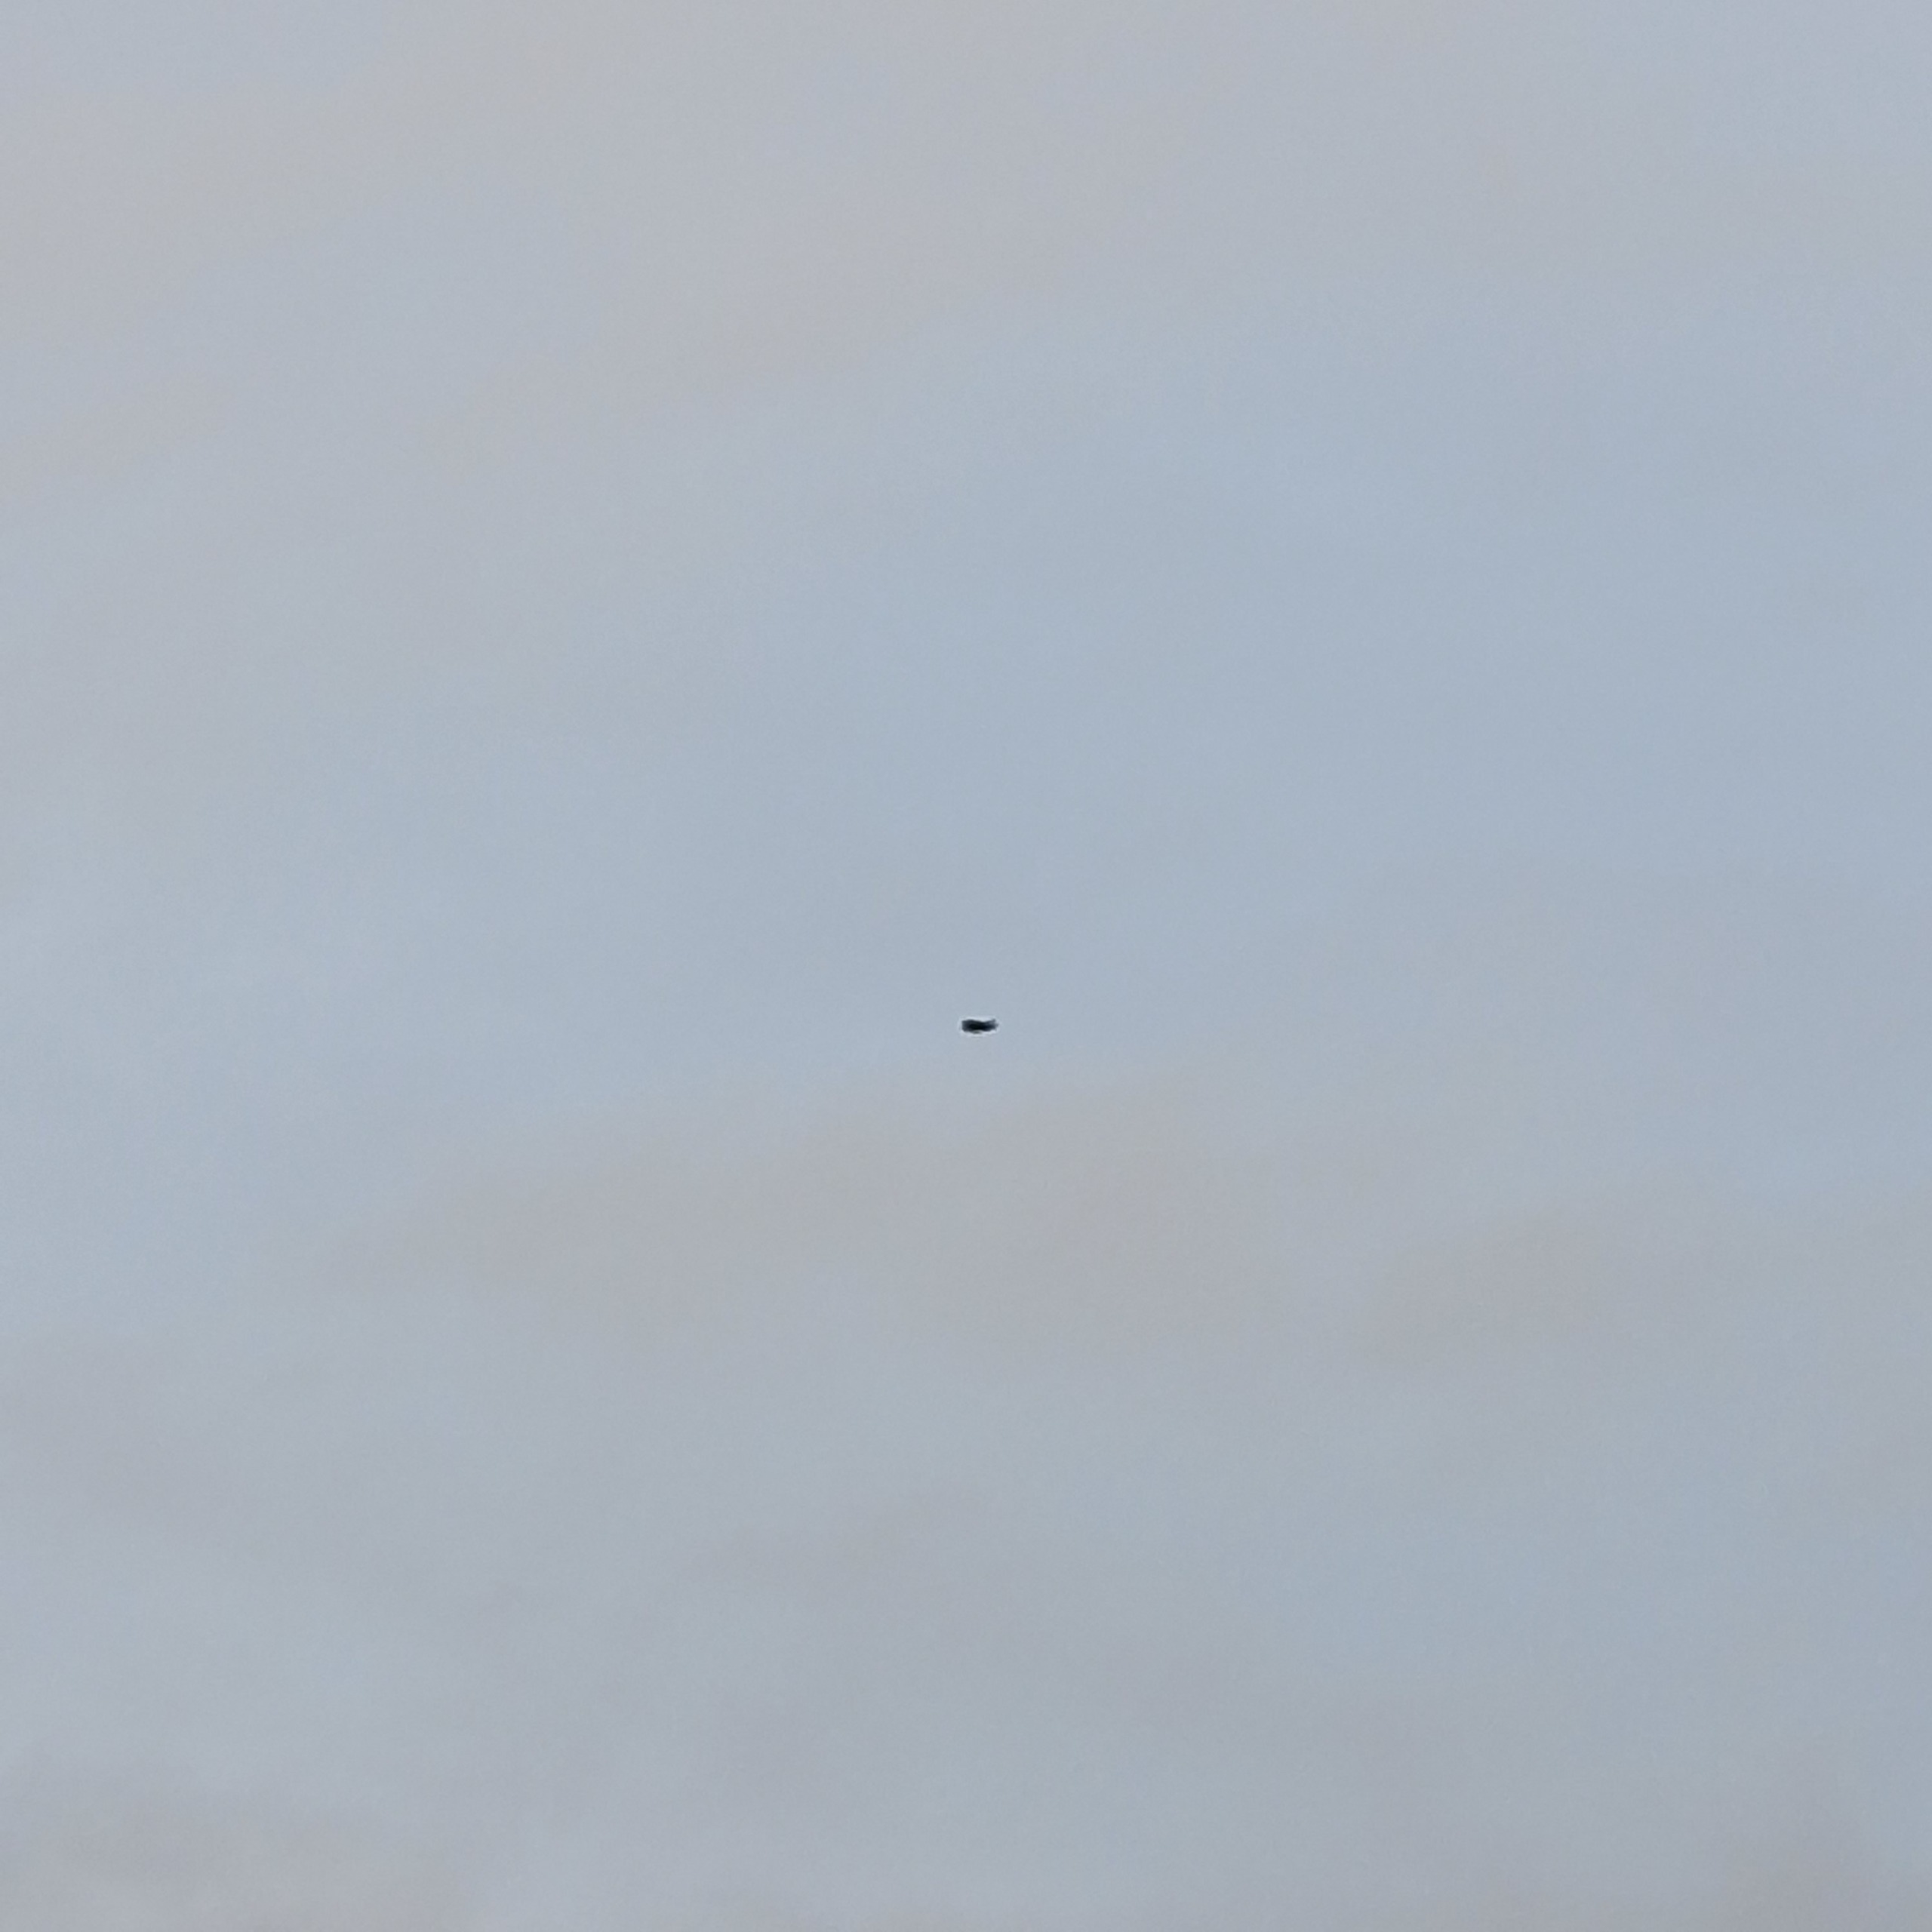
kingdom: Animalia
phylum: Chordata
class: Aves
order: Passeriformes
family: Corvidae
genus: Corvus
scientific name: Corvus cornix
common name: Gråkrage
